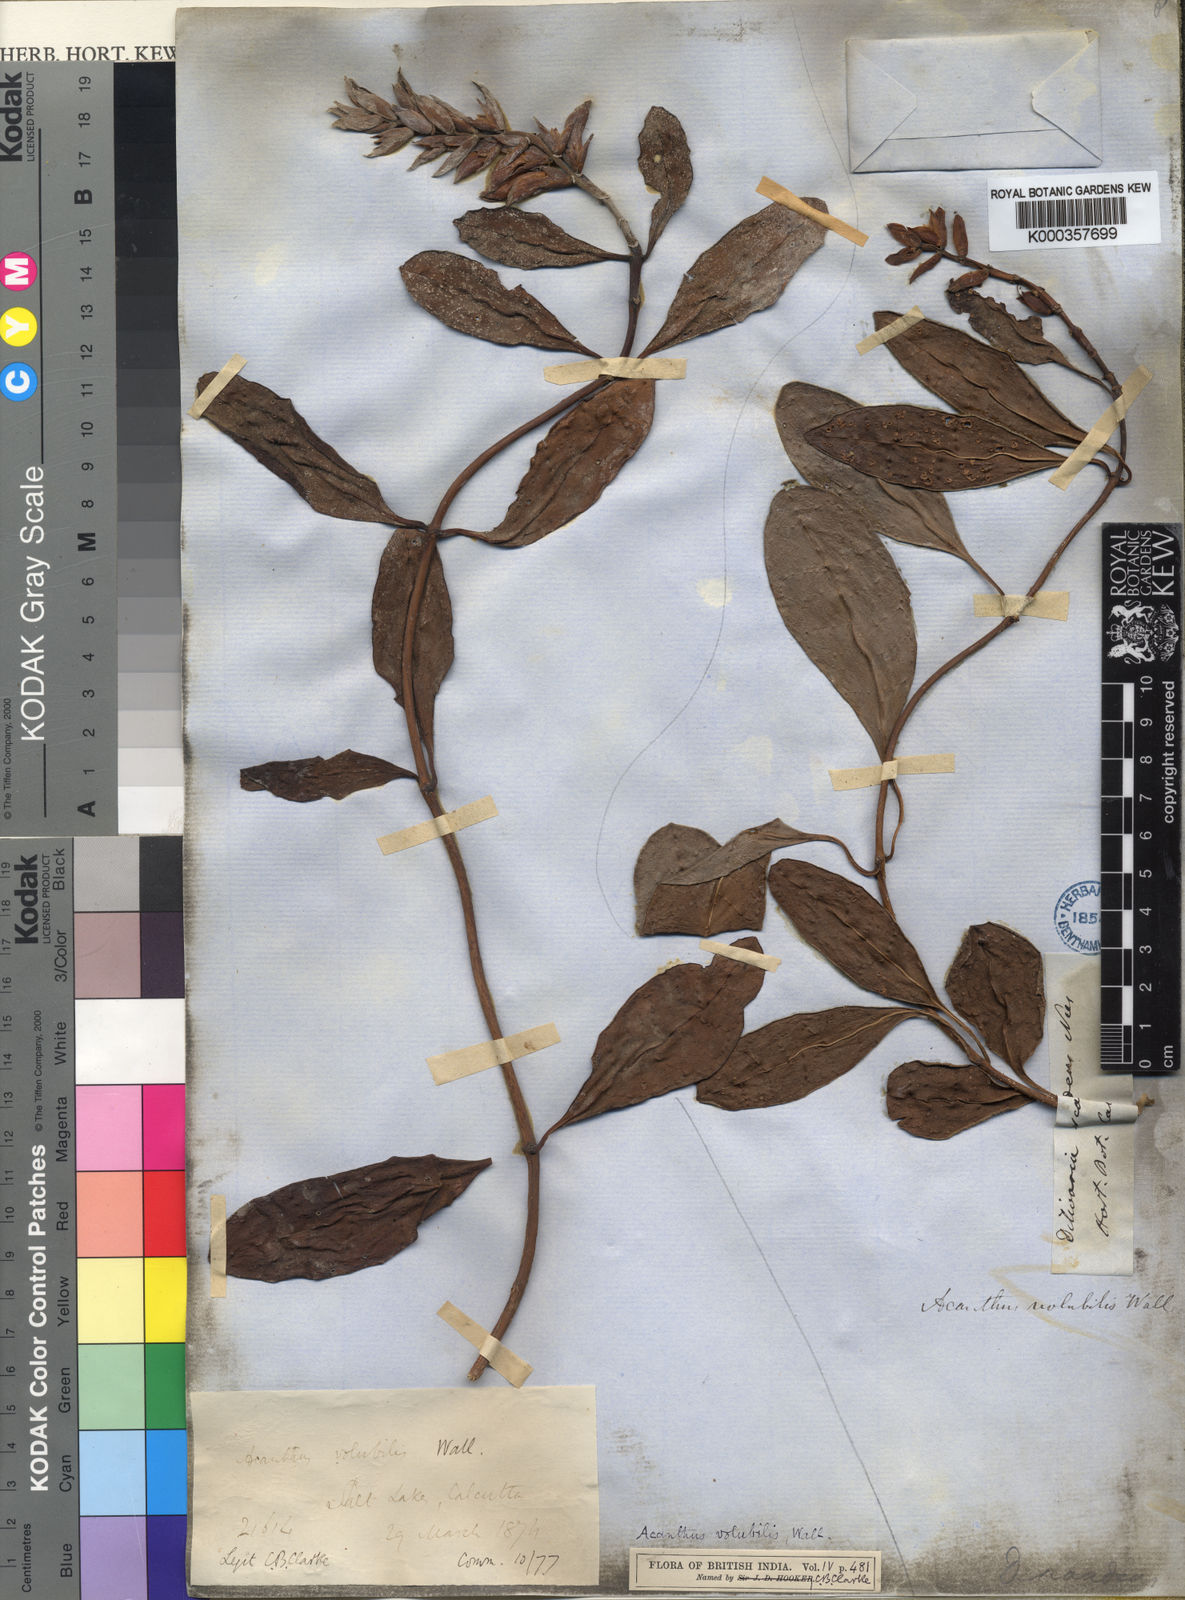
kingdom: Plantae
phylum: Tracheophyta
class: Magnoliopsida
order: Lamiales
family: Acanthaceae
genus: Acanthus
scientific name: Acanthus volubilis
